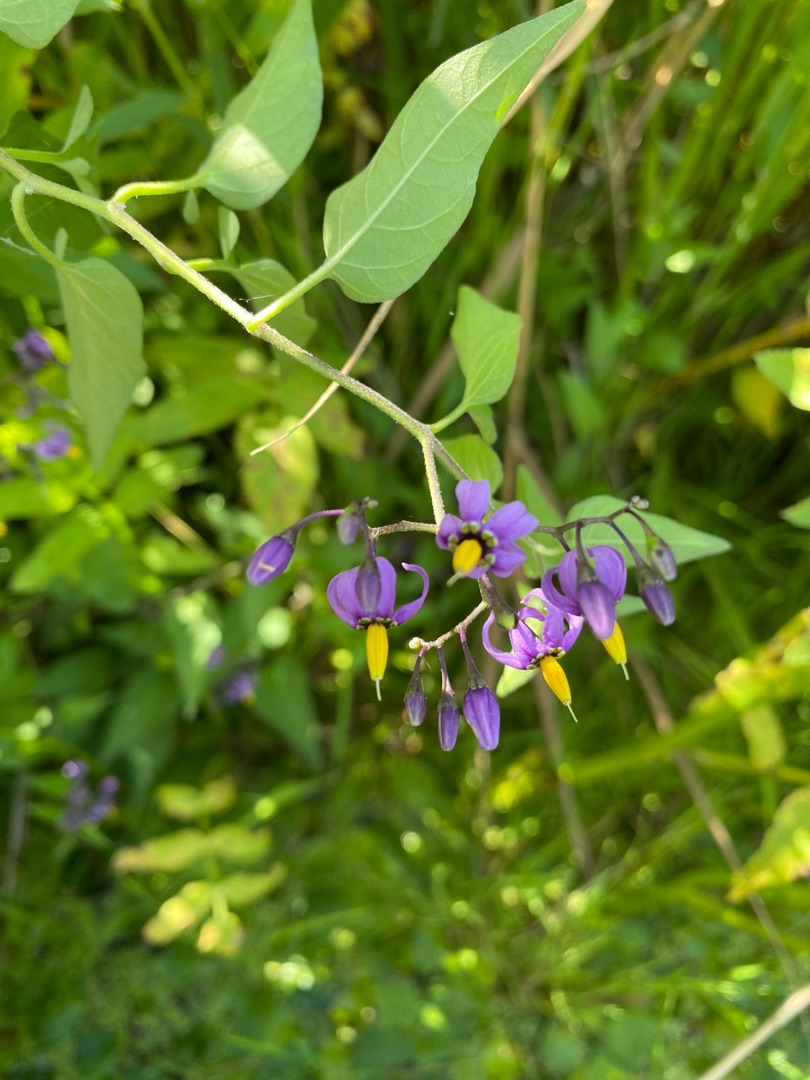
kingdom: Plantae
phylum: Tracheophyta
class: Magnoliopsida
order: Solanales
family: Solanaceae
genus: Solanum
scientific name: Solanum dulcamara
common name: Bittersød natskygge
